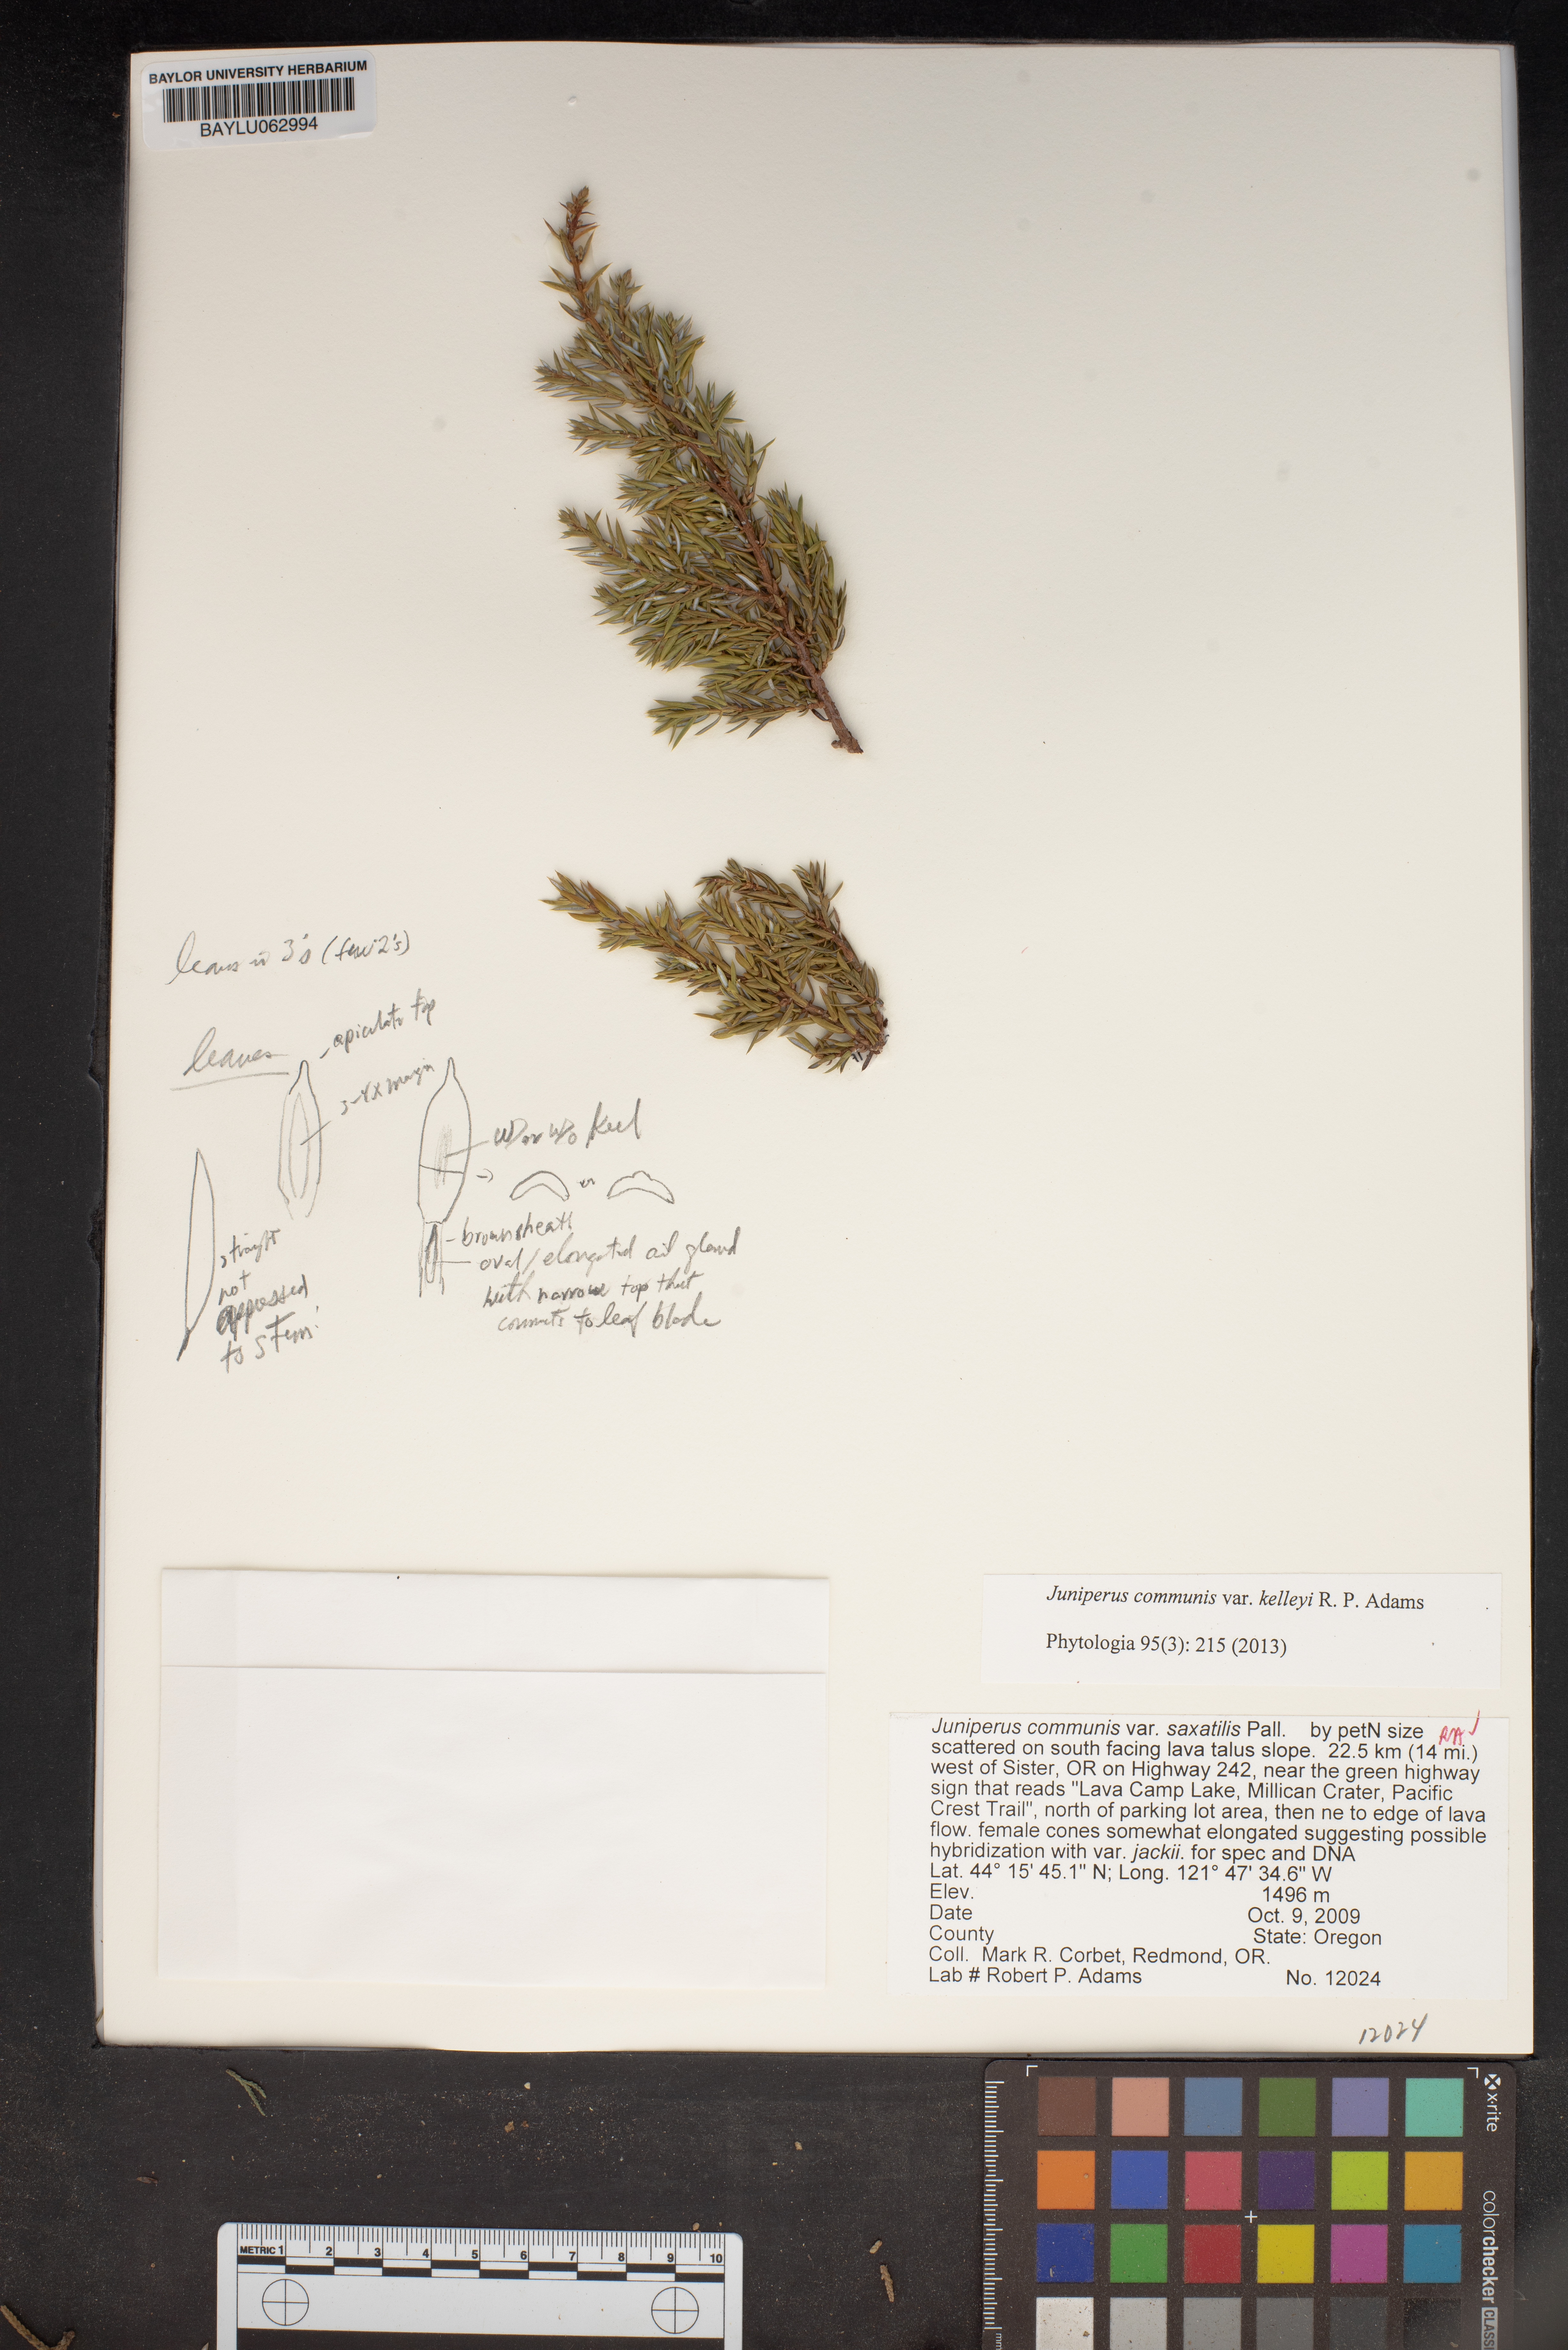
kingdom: Plantae
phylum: Tracheophyta
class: Pinopsida
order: Pinales
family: Cupressaceae
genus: Juniperus
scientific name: Juniperus communis
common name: Common juniper
